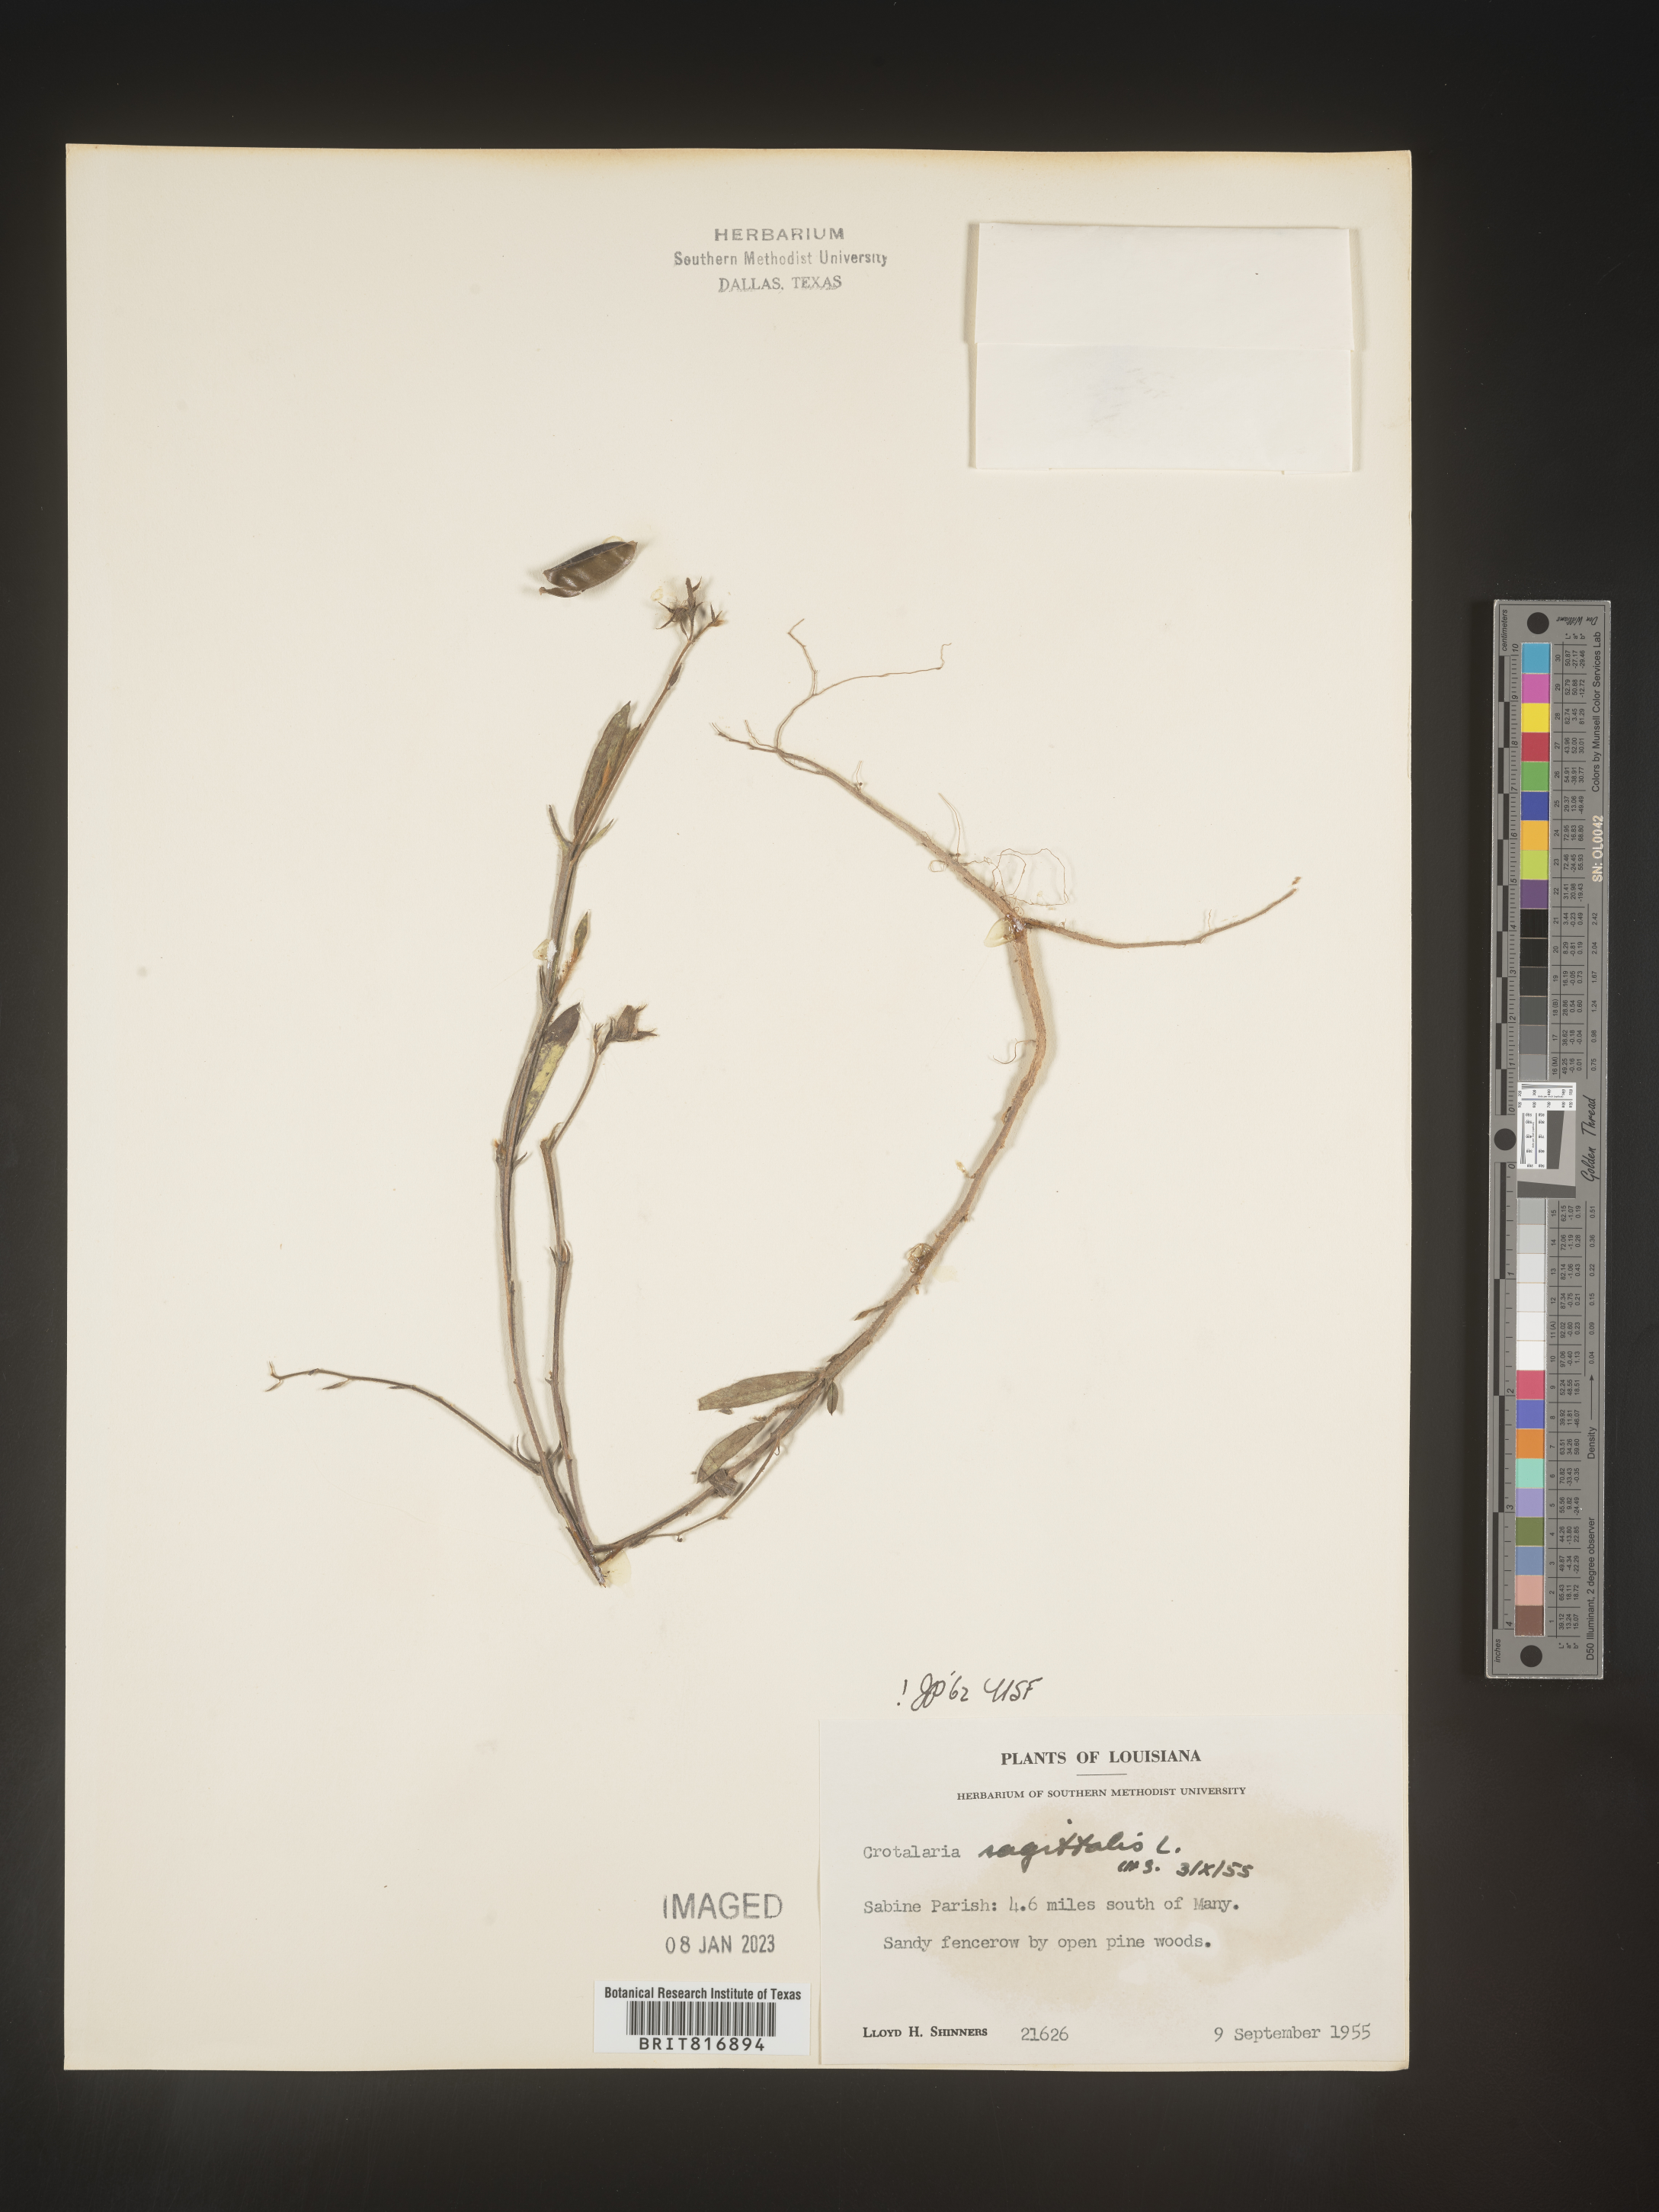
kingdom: Plantae
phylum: Tracheophyta
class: Magnoliopsida
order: Fabales
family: Fabaceae
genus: Crotalaria
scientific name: Crotalaria sagittalis
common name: Arrowhead rattlebox
